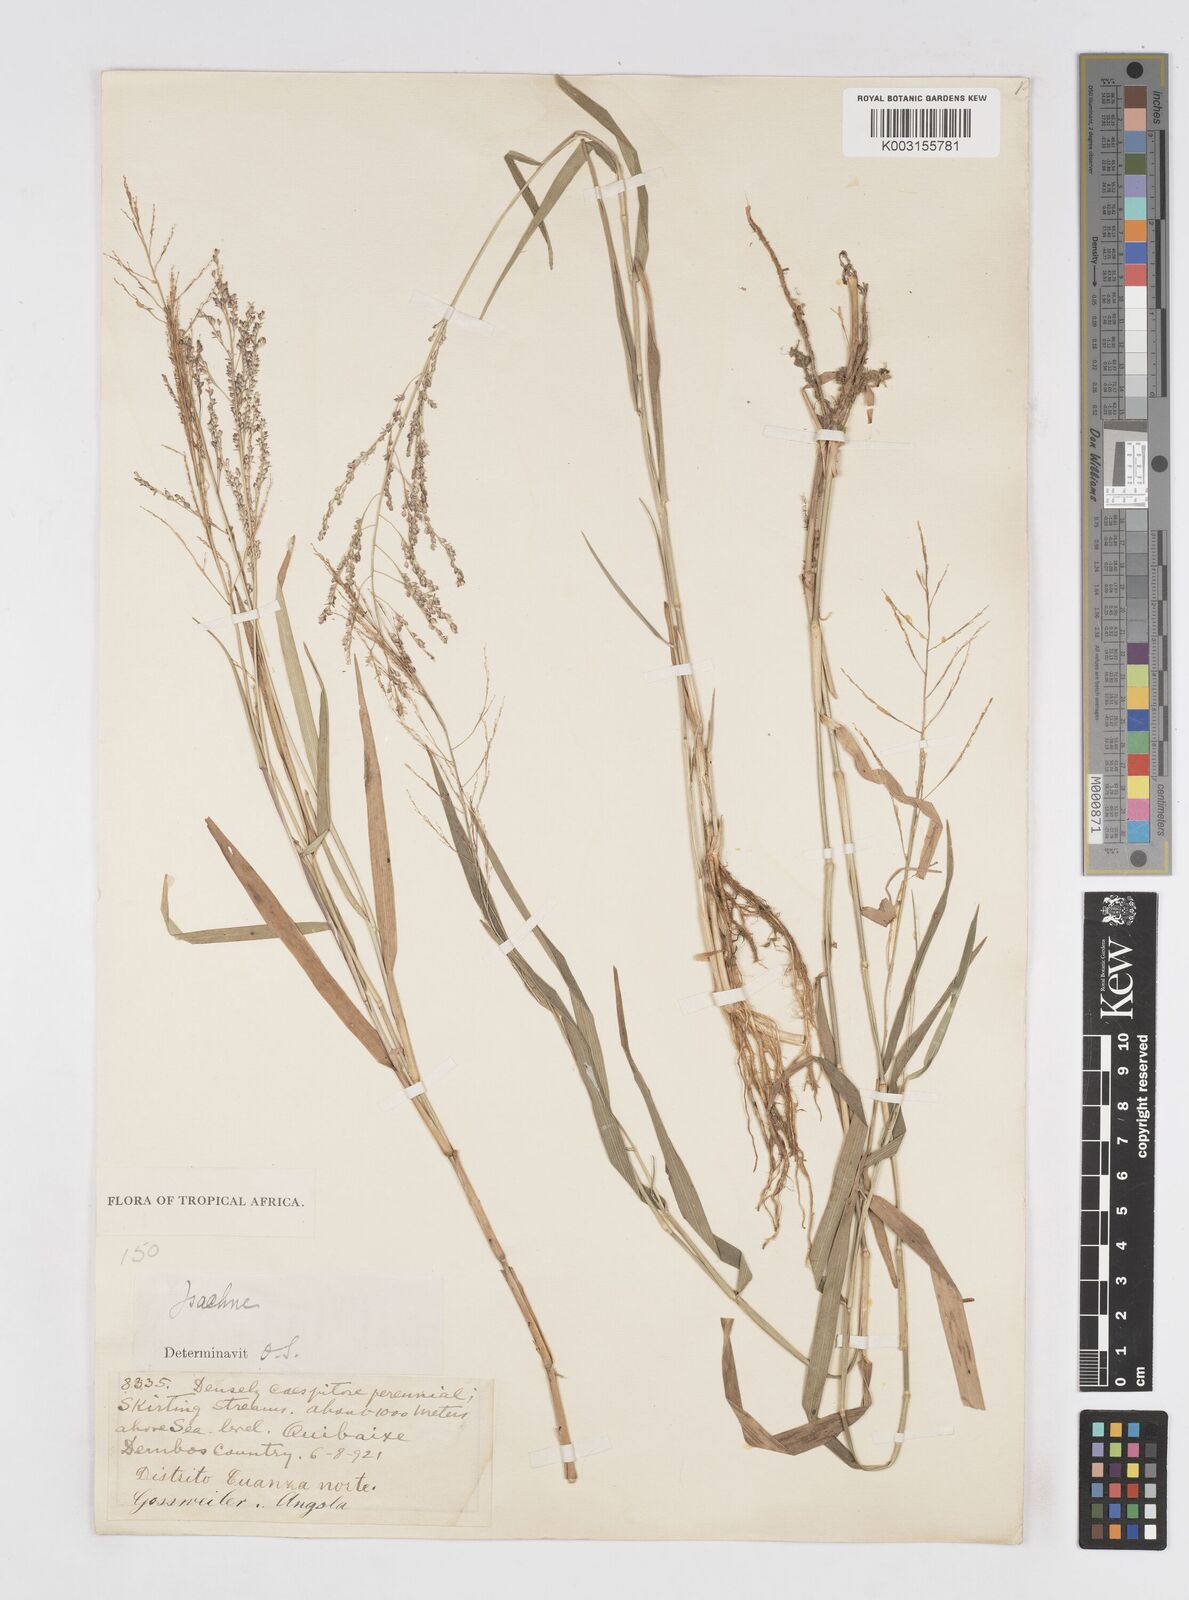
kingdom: Plantae
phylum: Tracheophyta
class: Liliopsida
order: Poales
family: Poaceae
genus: Isachne
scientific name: Isachne angolensis
